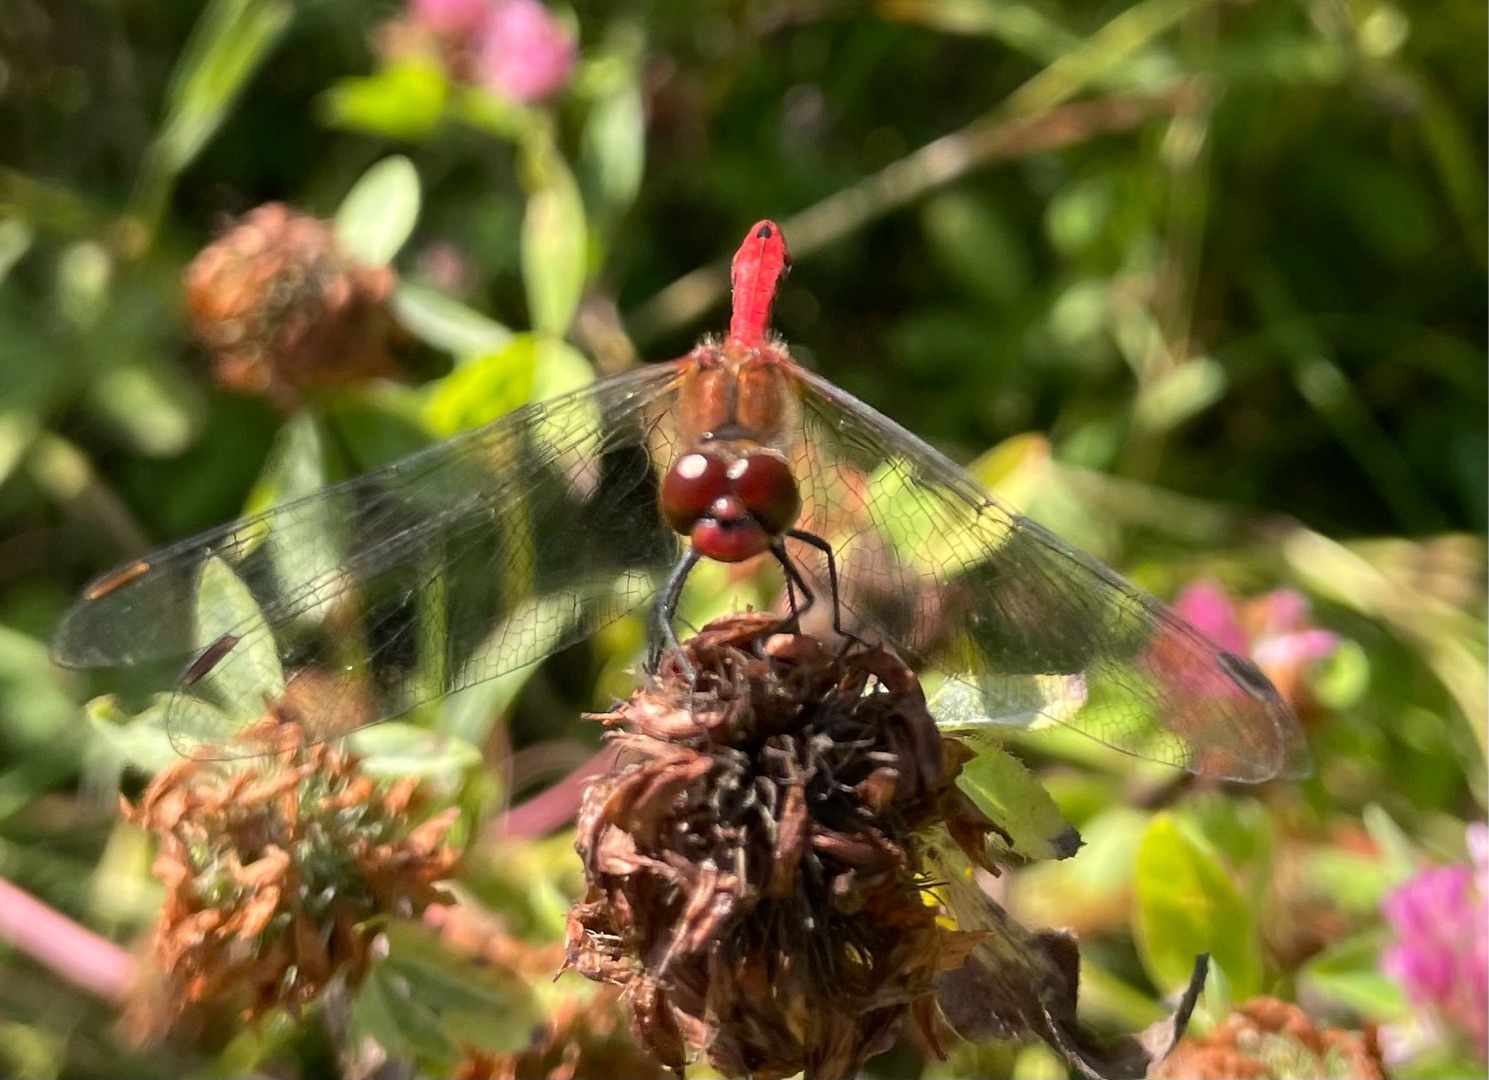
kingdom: Animalia
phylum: Arthropoda
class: Insecta
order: Odonata
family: Libellulidae
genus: Sympetrum
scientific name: Sympetrum sanguineum
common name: Blodrød hedelibel
